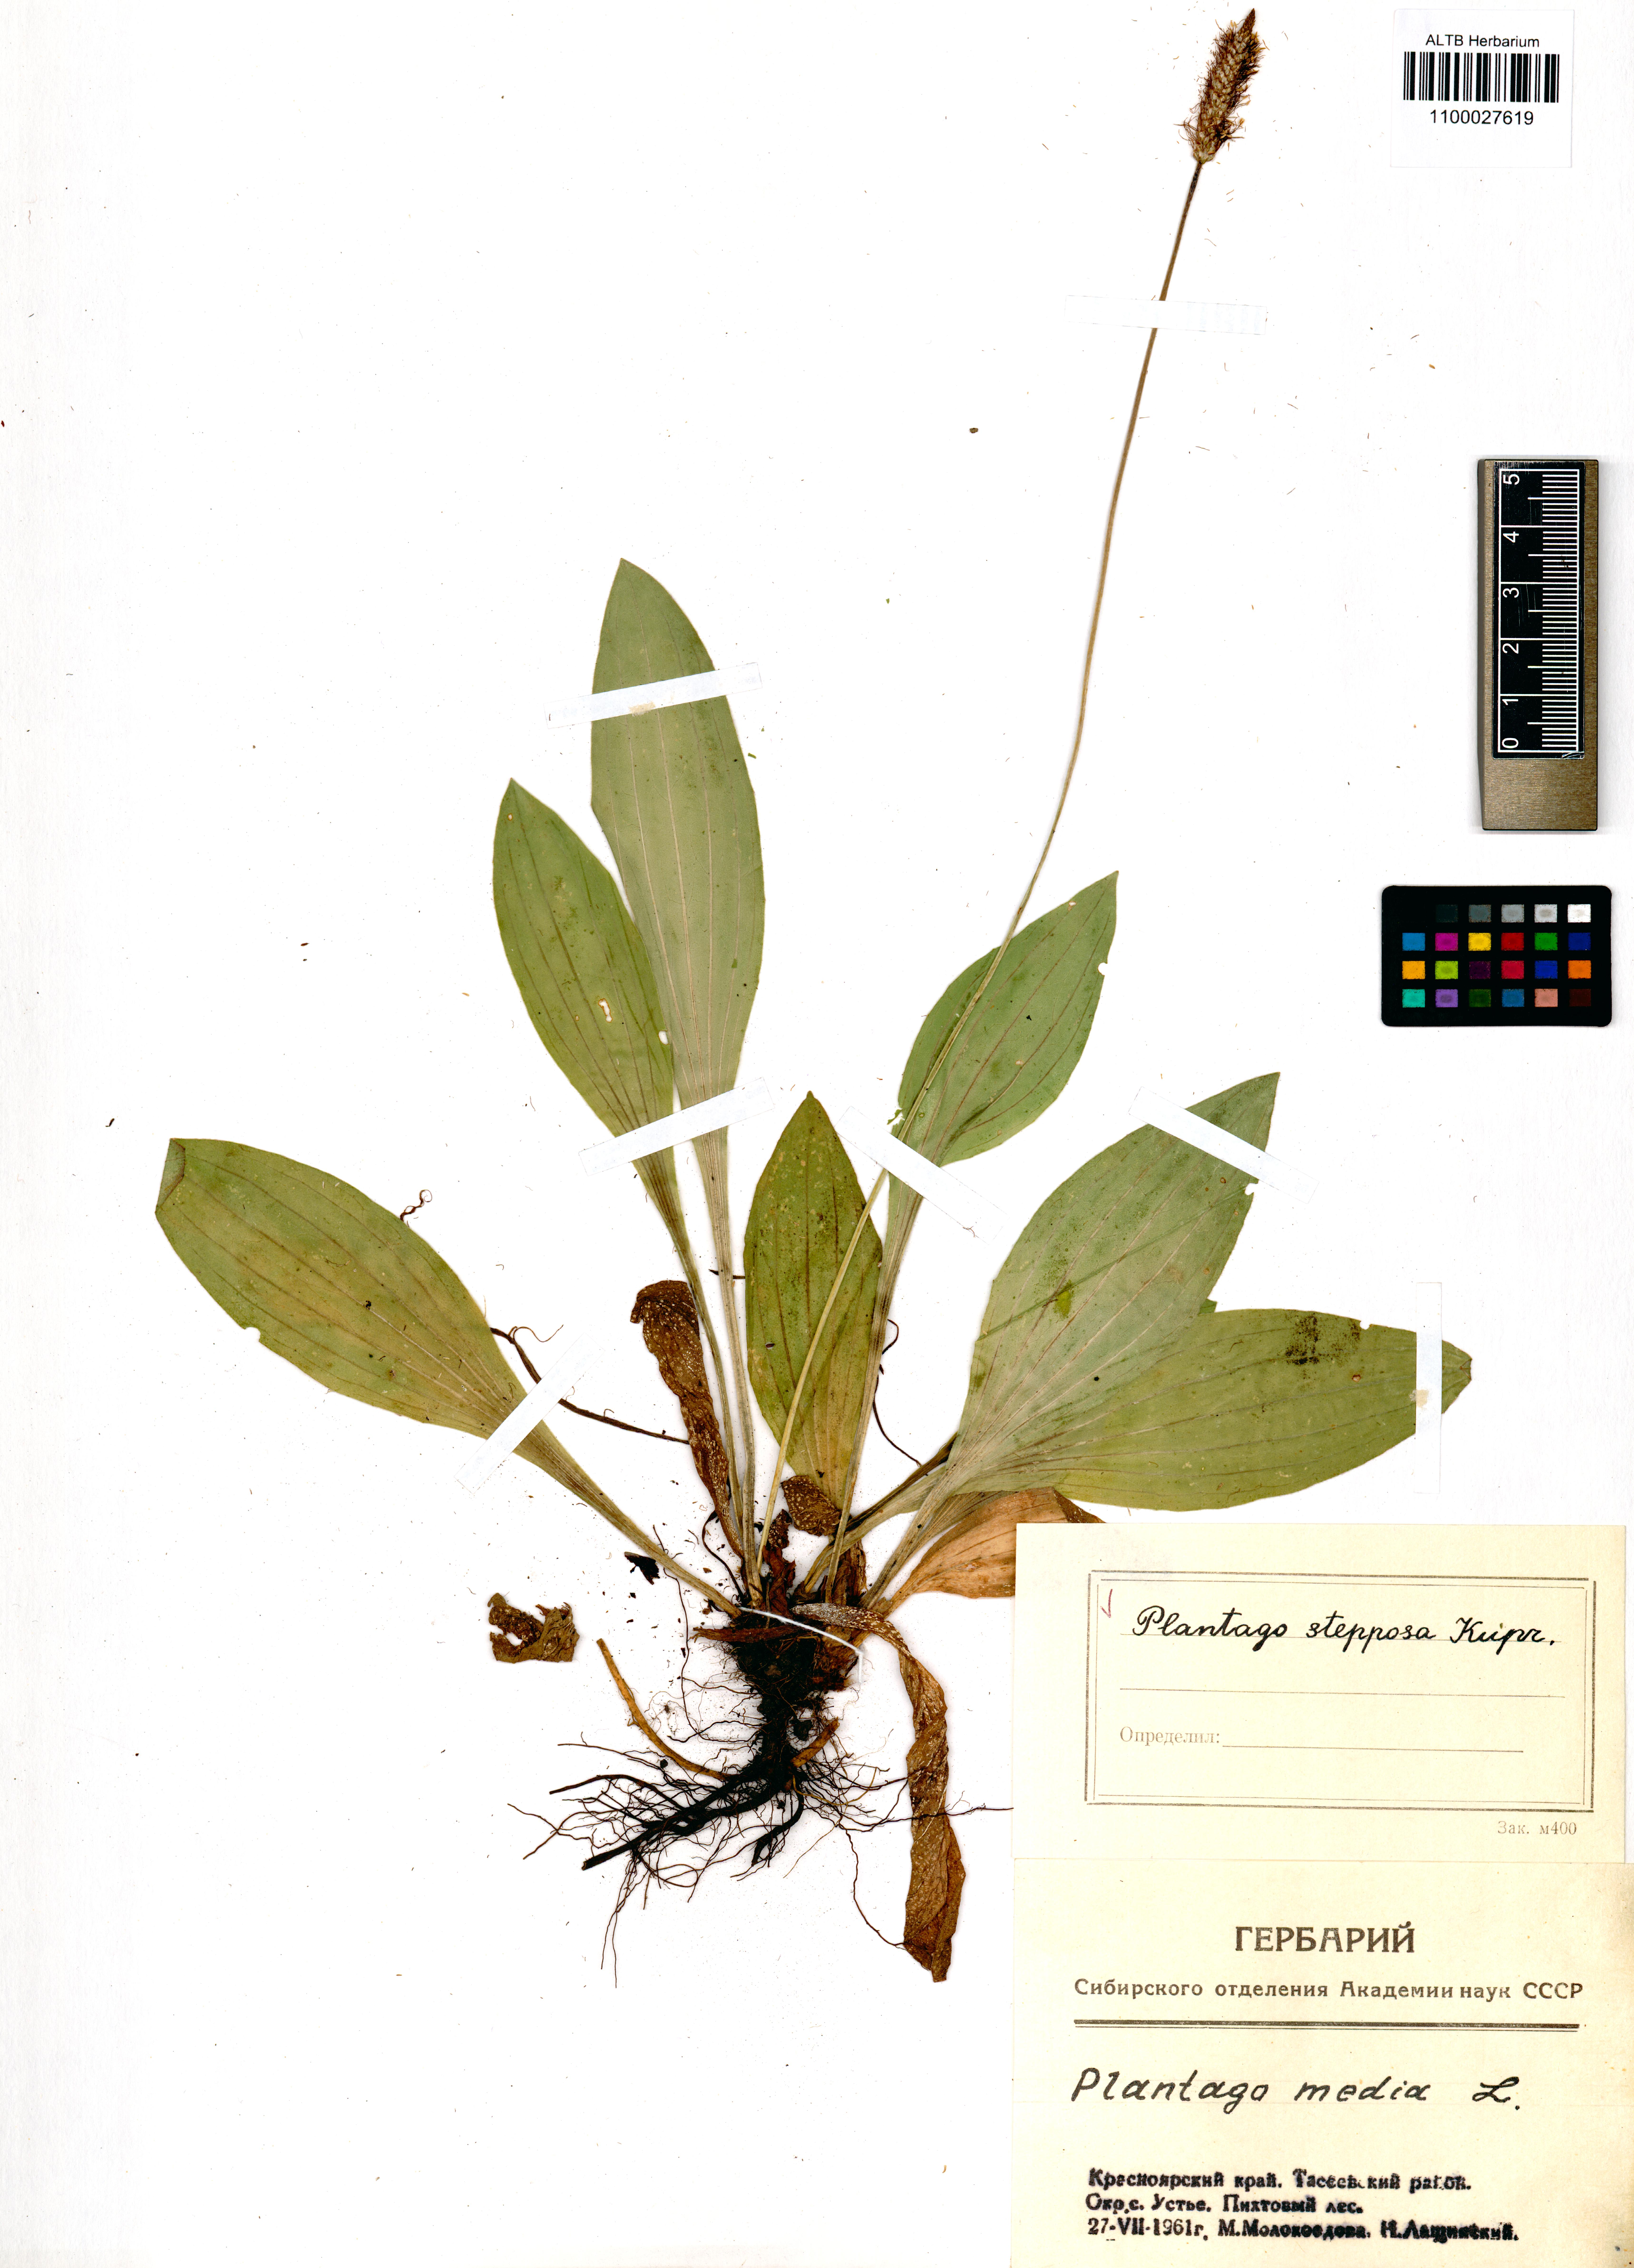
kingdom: Plantae
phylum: Tracheophyta
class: Magnoliopsida
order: Lamiales
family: Plantaginaceae
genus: Plantago
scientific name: Plantago urvillei
